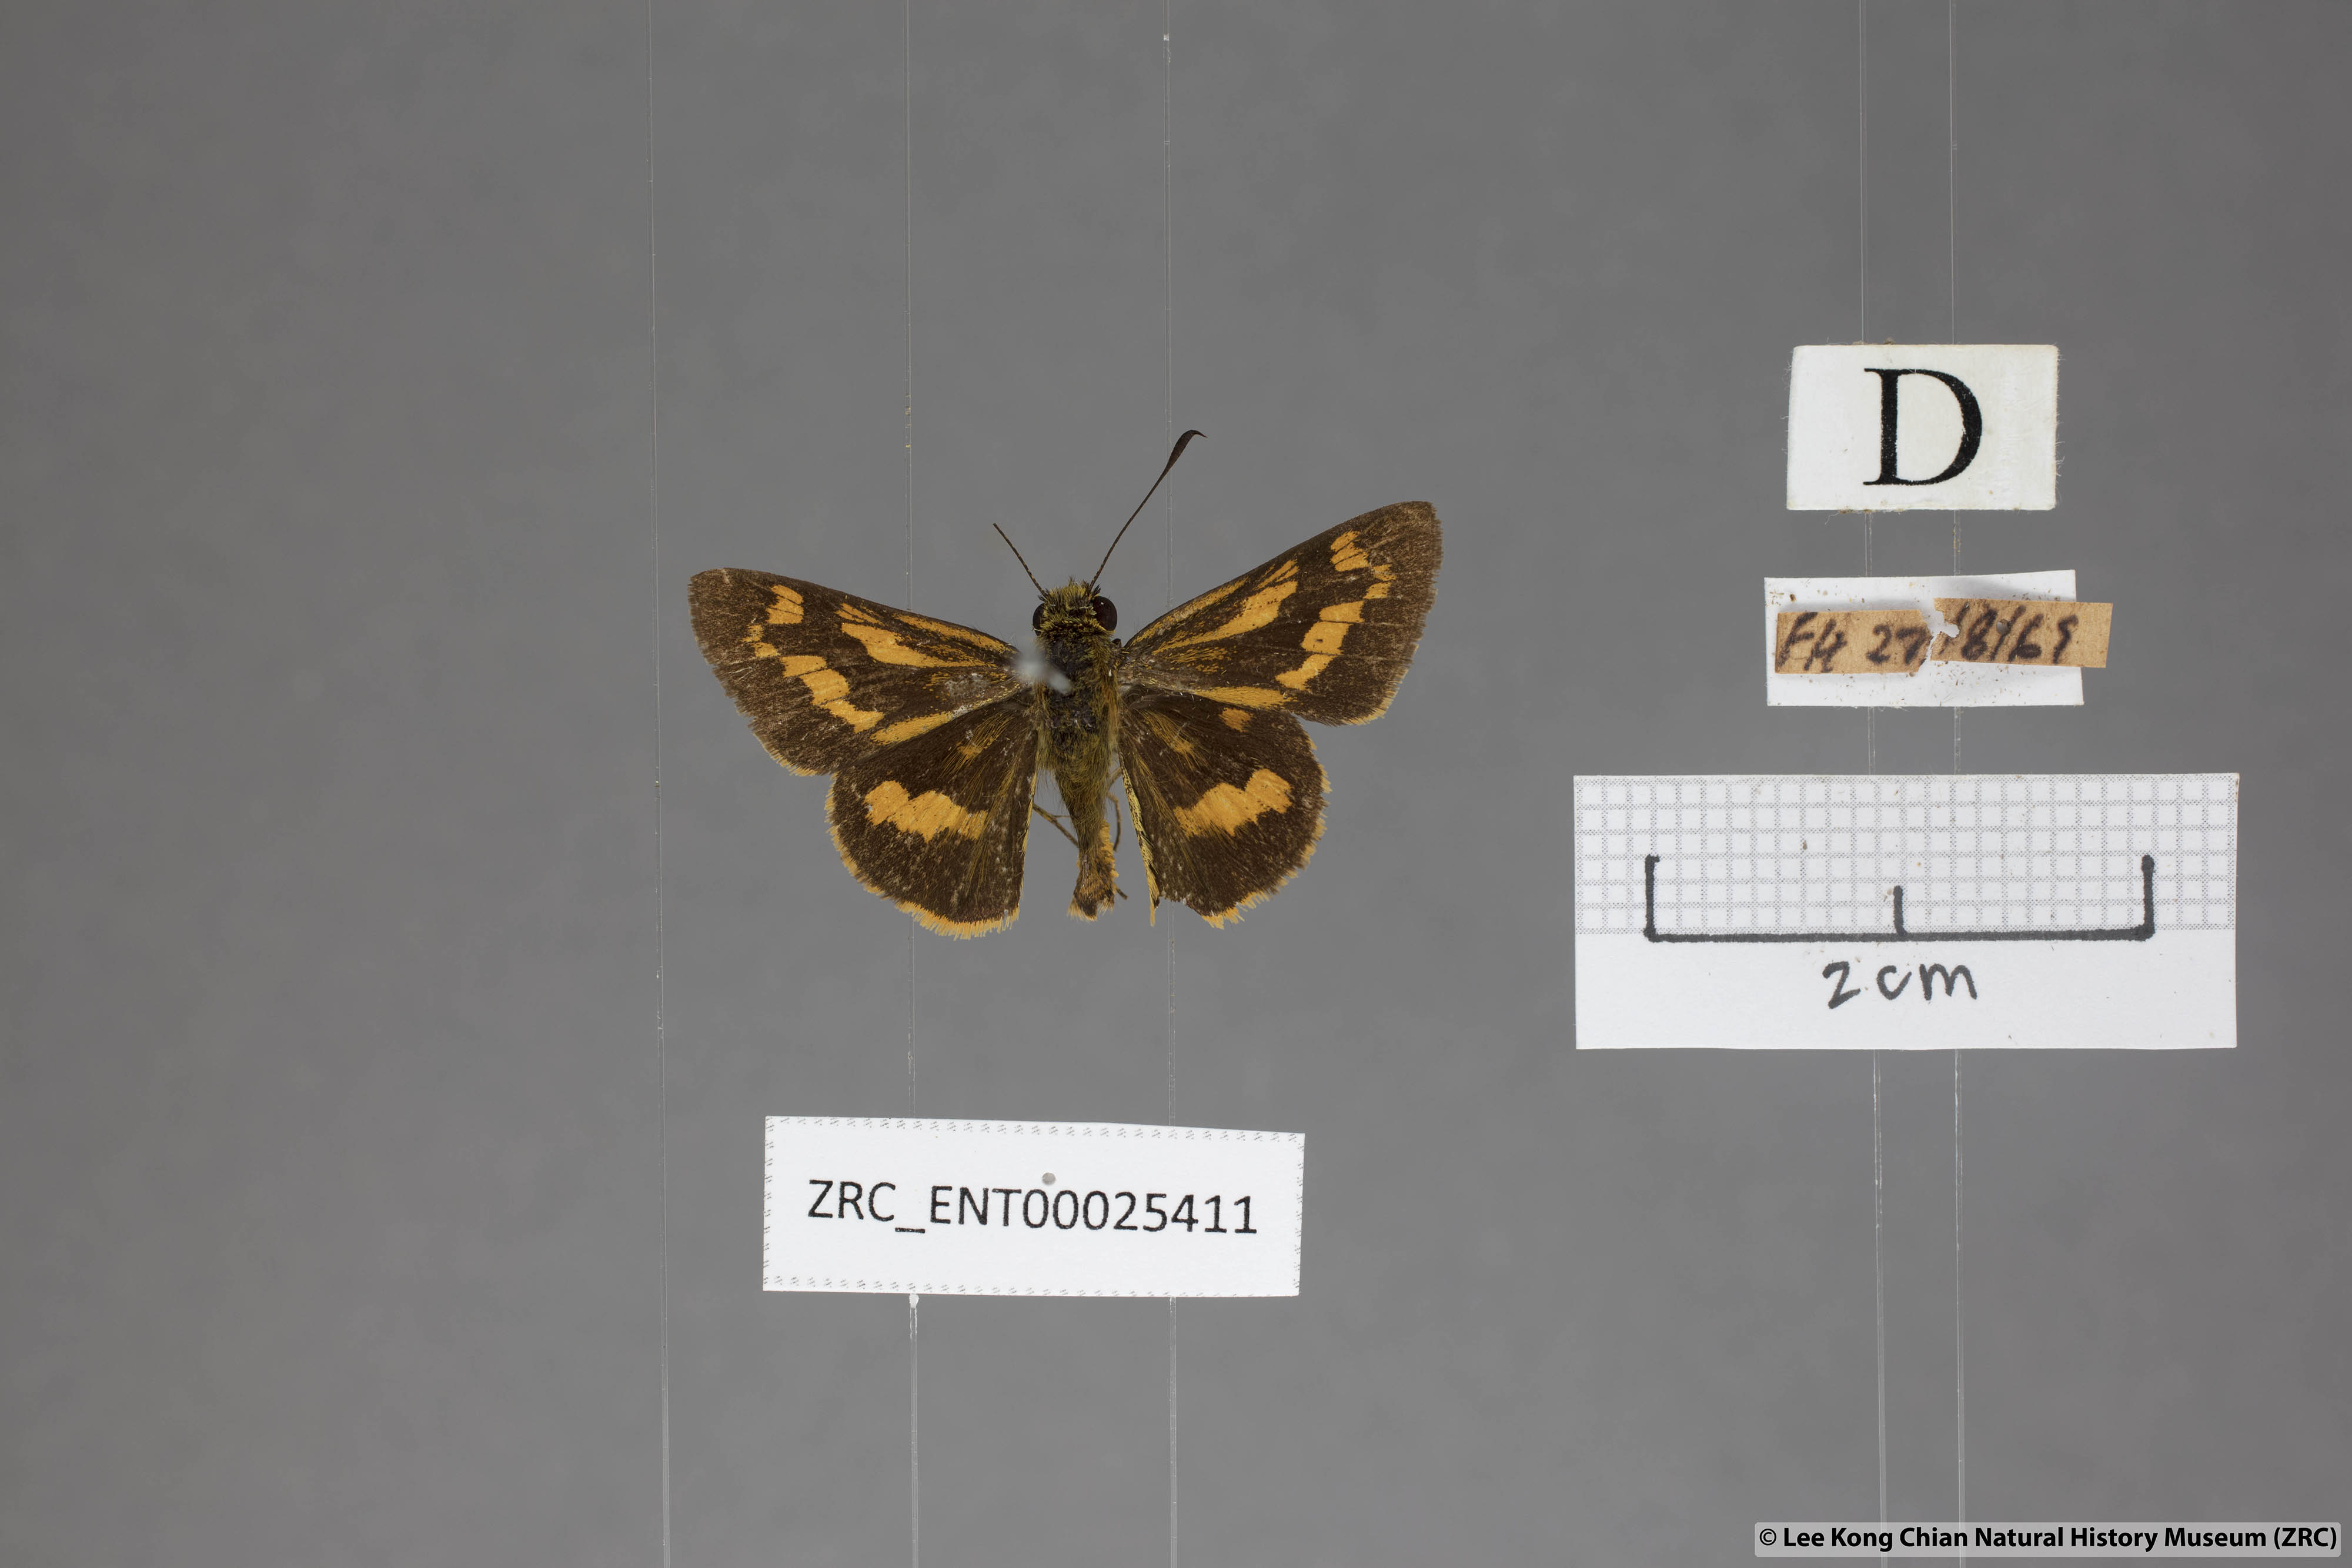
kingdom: Animalia
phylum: Arthropoda
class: Insecta
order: Lepidoptera
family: Hesperiidae
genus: Potanthus
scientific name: Potanthus lydia
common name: Lydia dart
